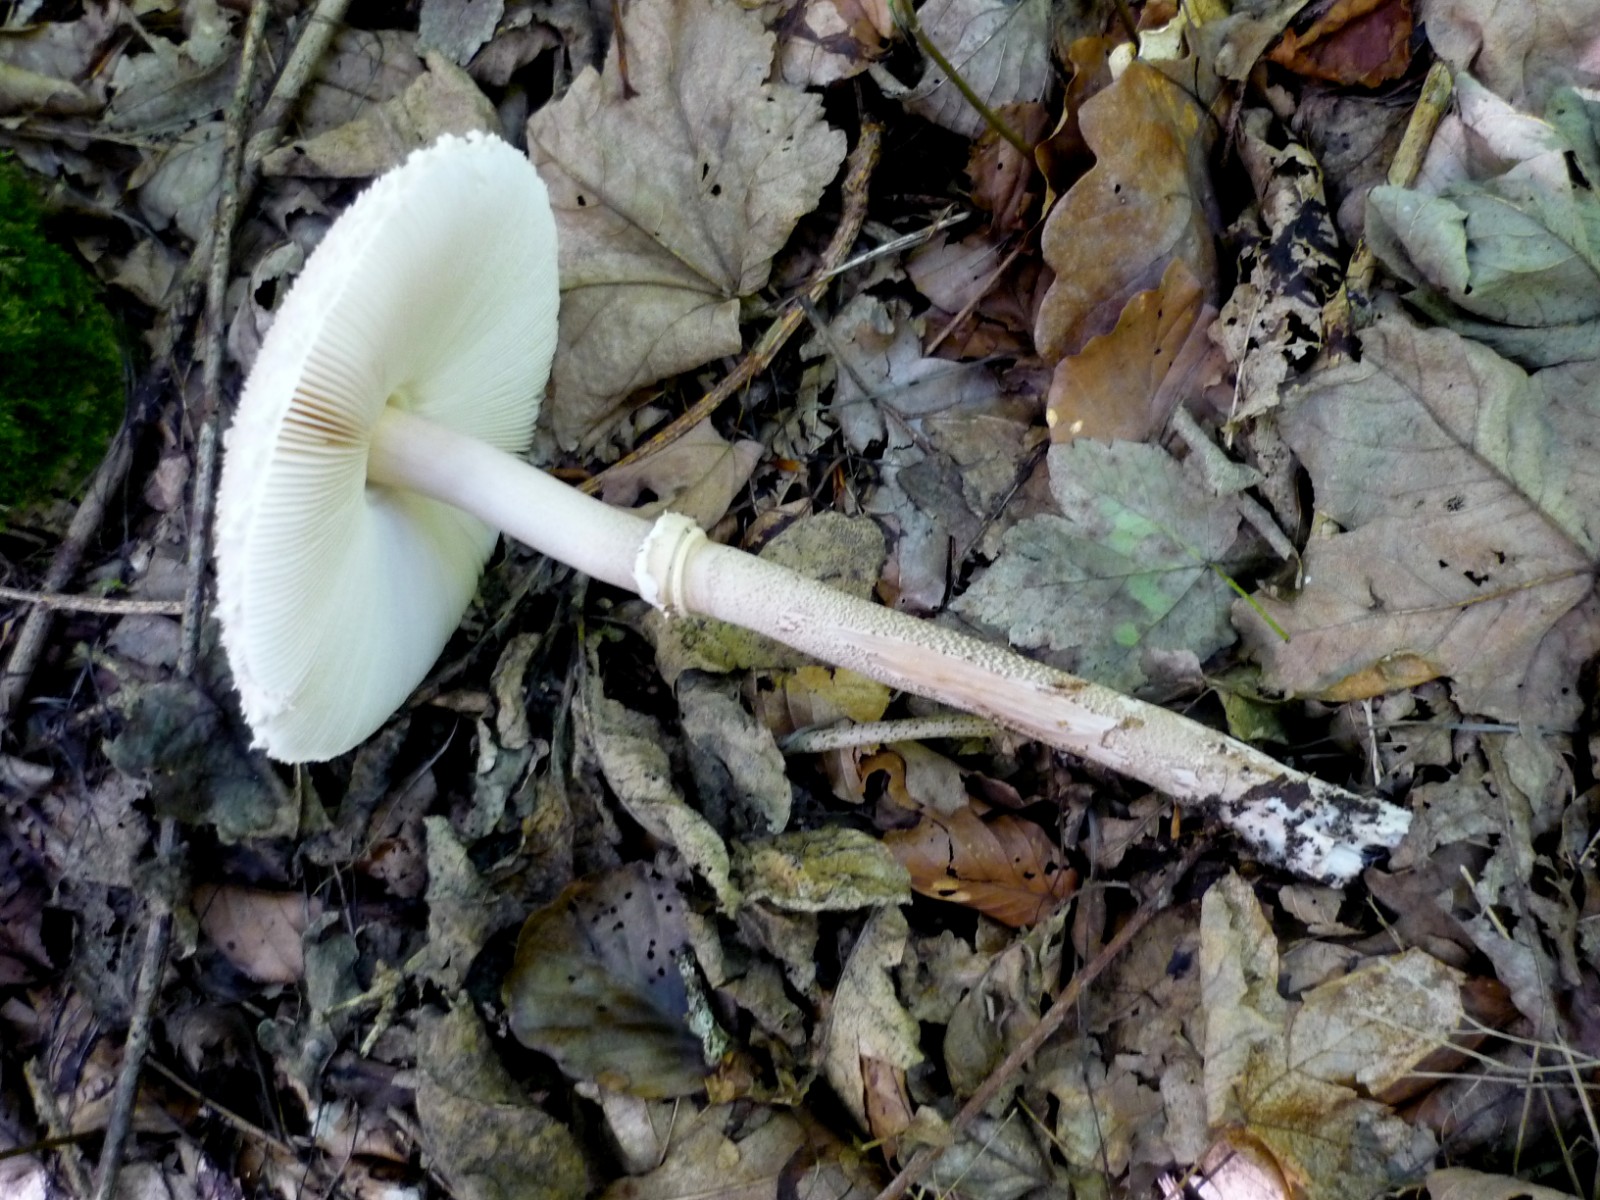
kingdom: Fungi
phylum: Basidiomycota
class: Agaricomycetes
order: Agaricales
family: Agaricaceae
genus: Macrolepiota
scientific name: Macrolepiota mastoidea
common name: puklet kæmpeparasolhat
